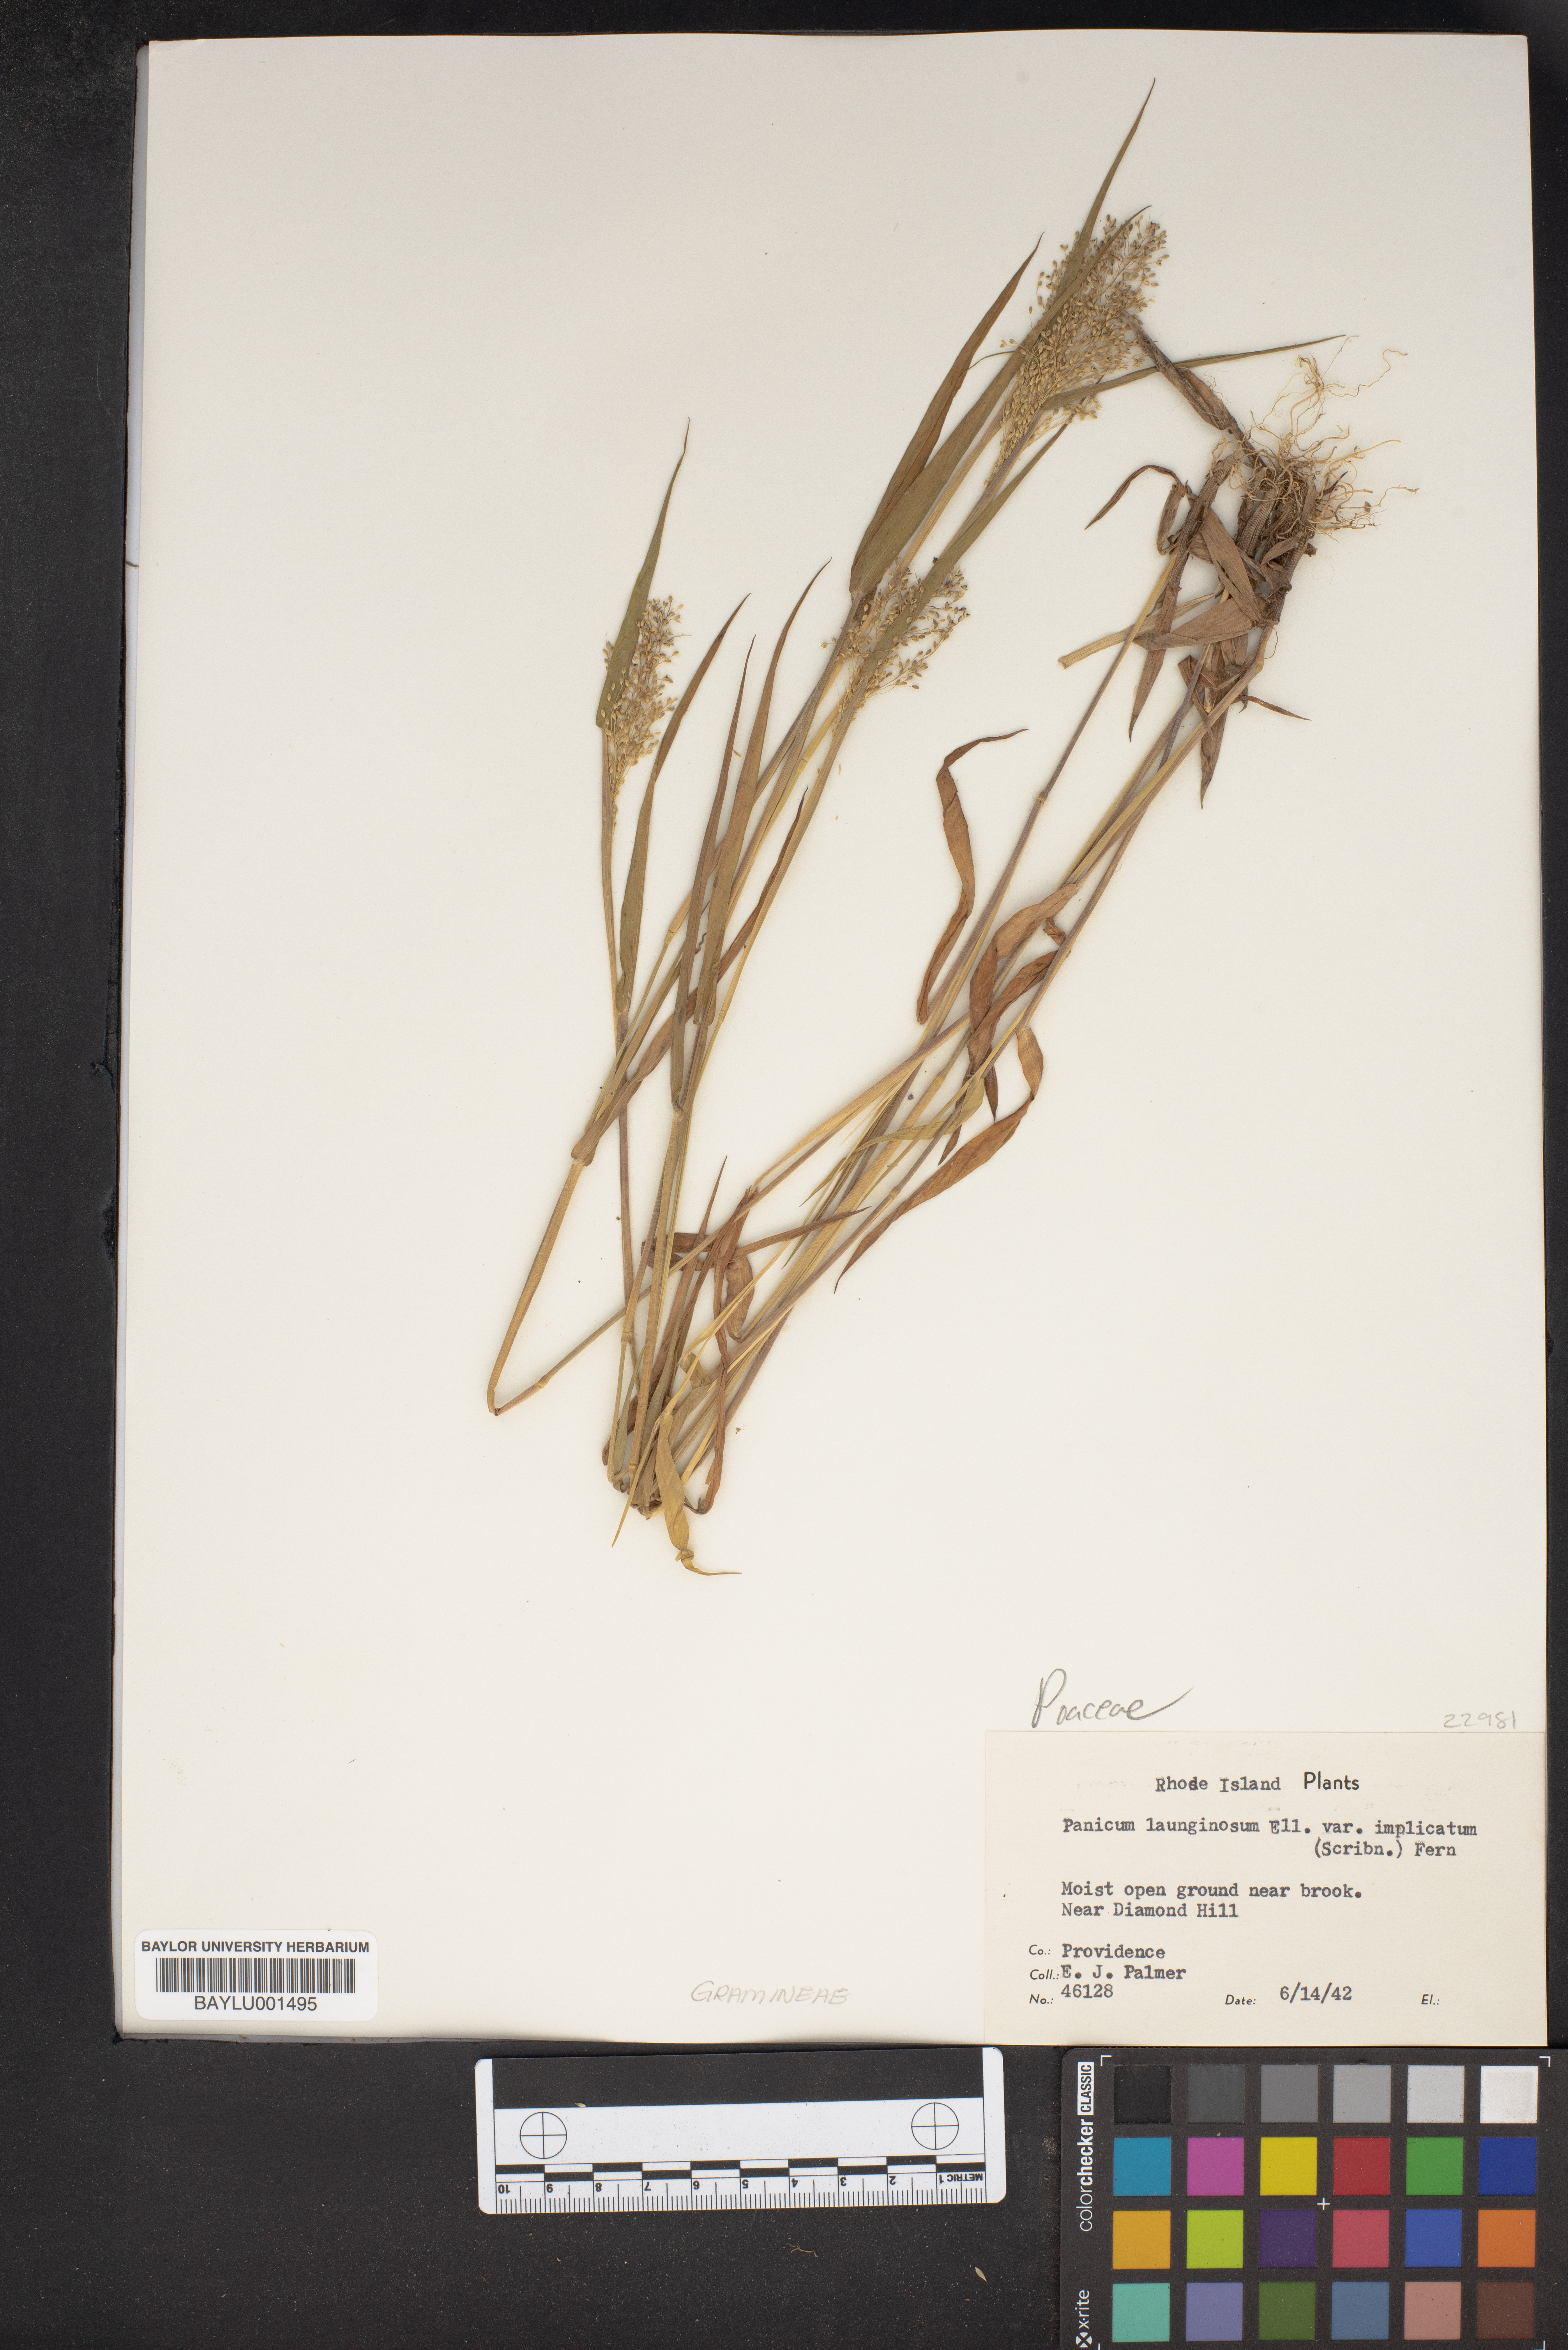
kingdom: Plantae
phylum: Tracheophyta
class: Liliopsida
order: Poales
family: Poaceae
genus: Dichanthelium
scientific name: Dichanthelium lanuginosum
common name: Woolly panicgrass
